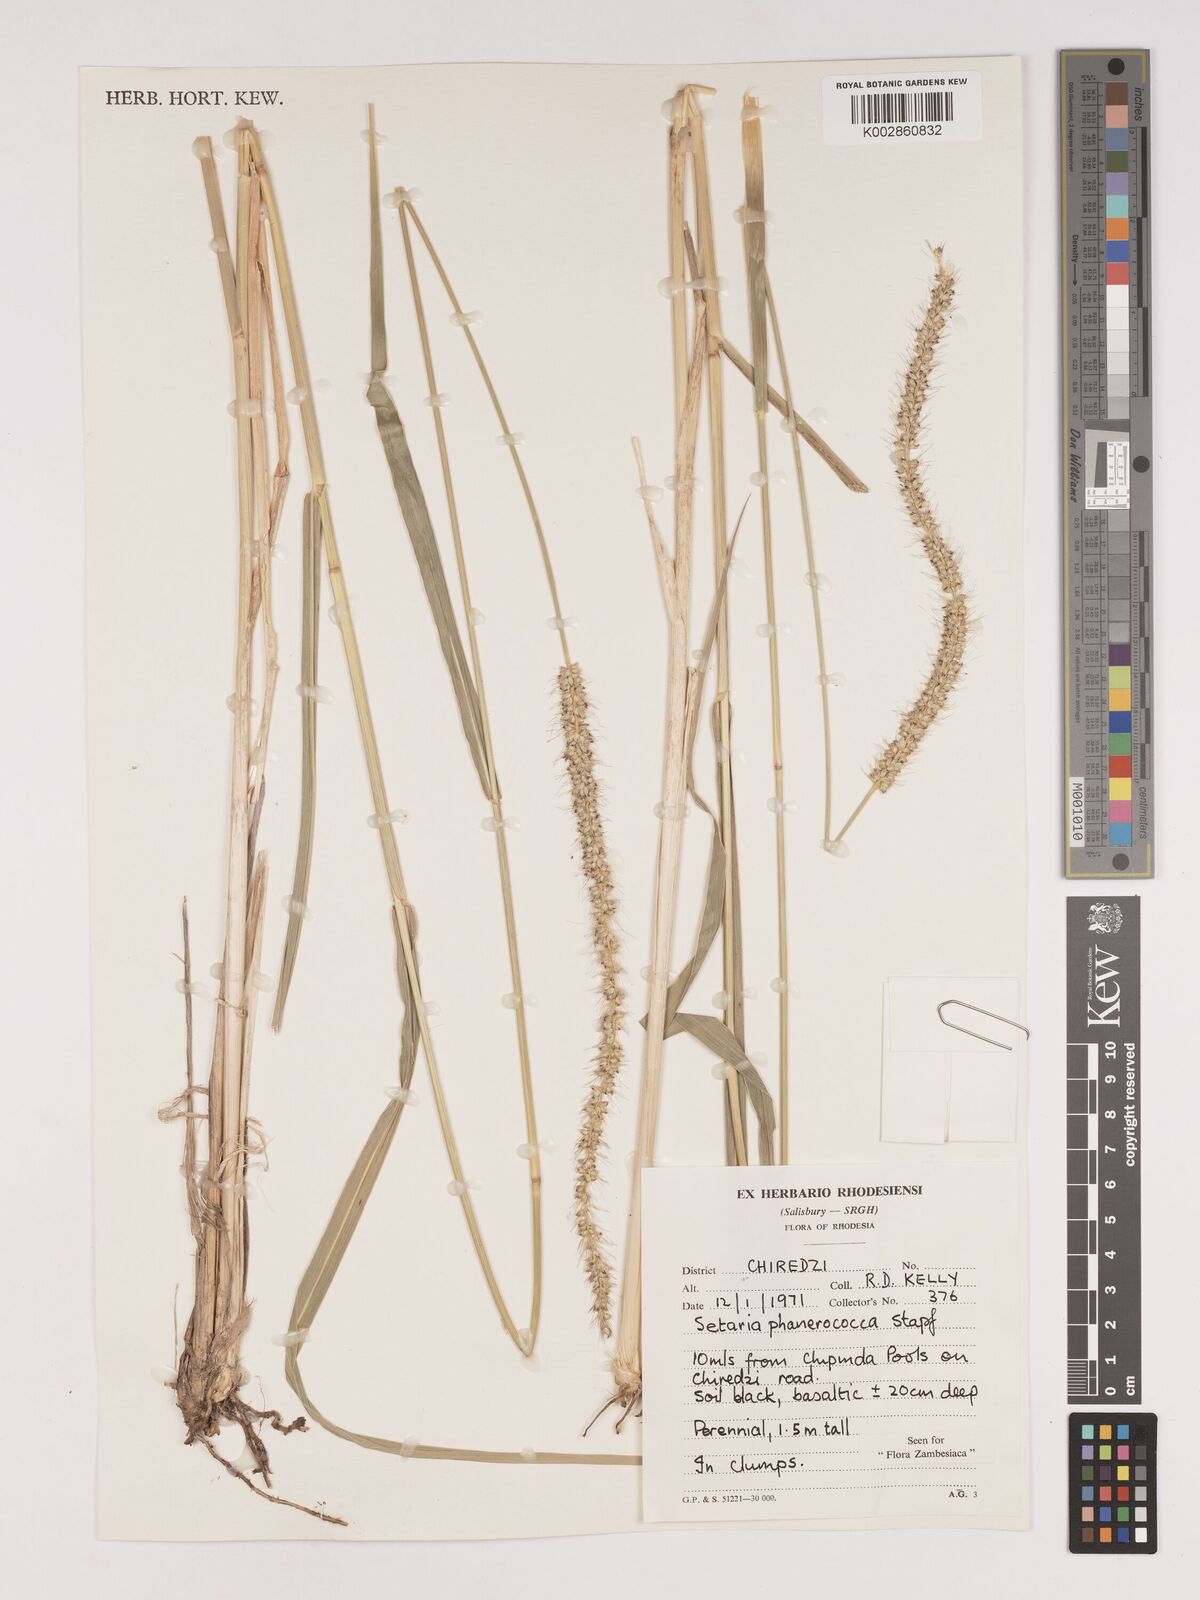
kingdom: Plantae
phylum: Tracheophyta
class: Liliopsida
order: Poales
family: Poaceae
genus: Setaria
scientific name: Setaria incrassata
